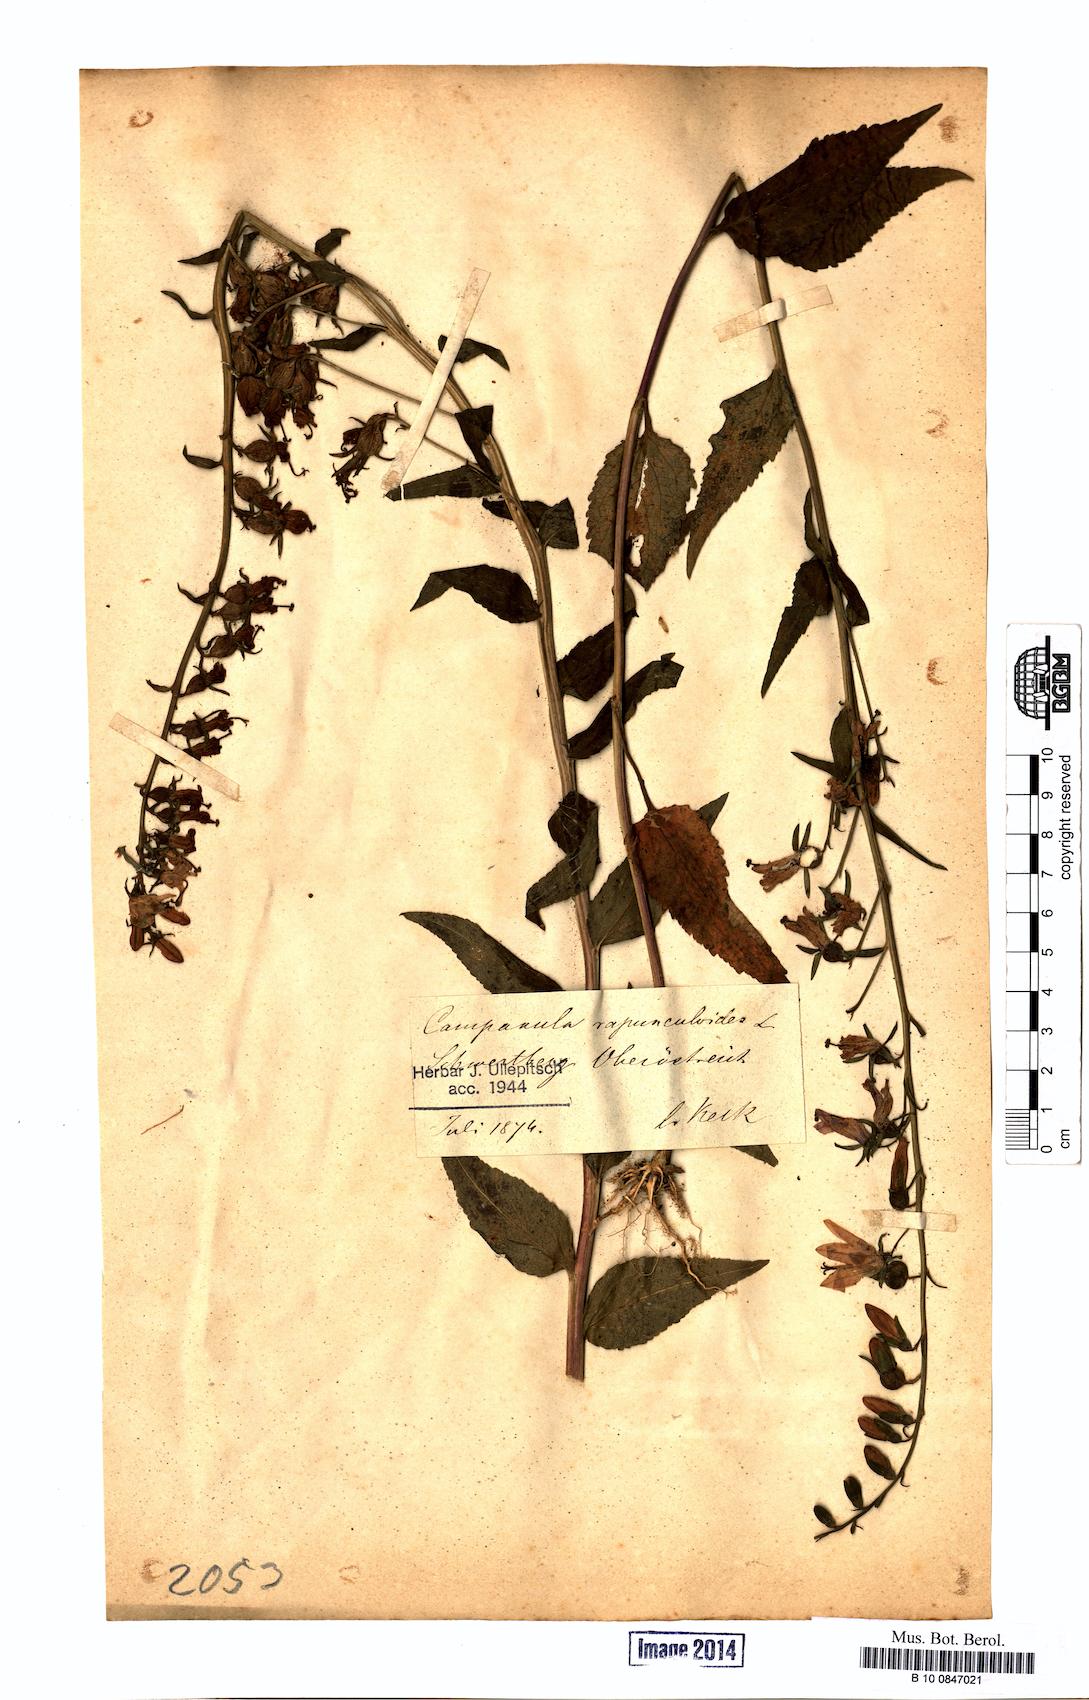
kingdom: Plantae
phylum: Tracheophyta
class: Magnoliopsida
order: Asterales
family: Campanulaceae
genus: Campanula
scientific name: Campanula rapunculoides
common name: Creeping bellflower
